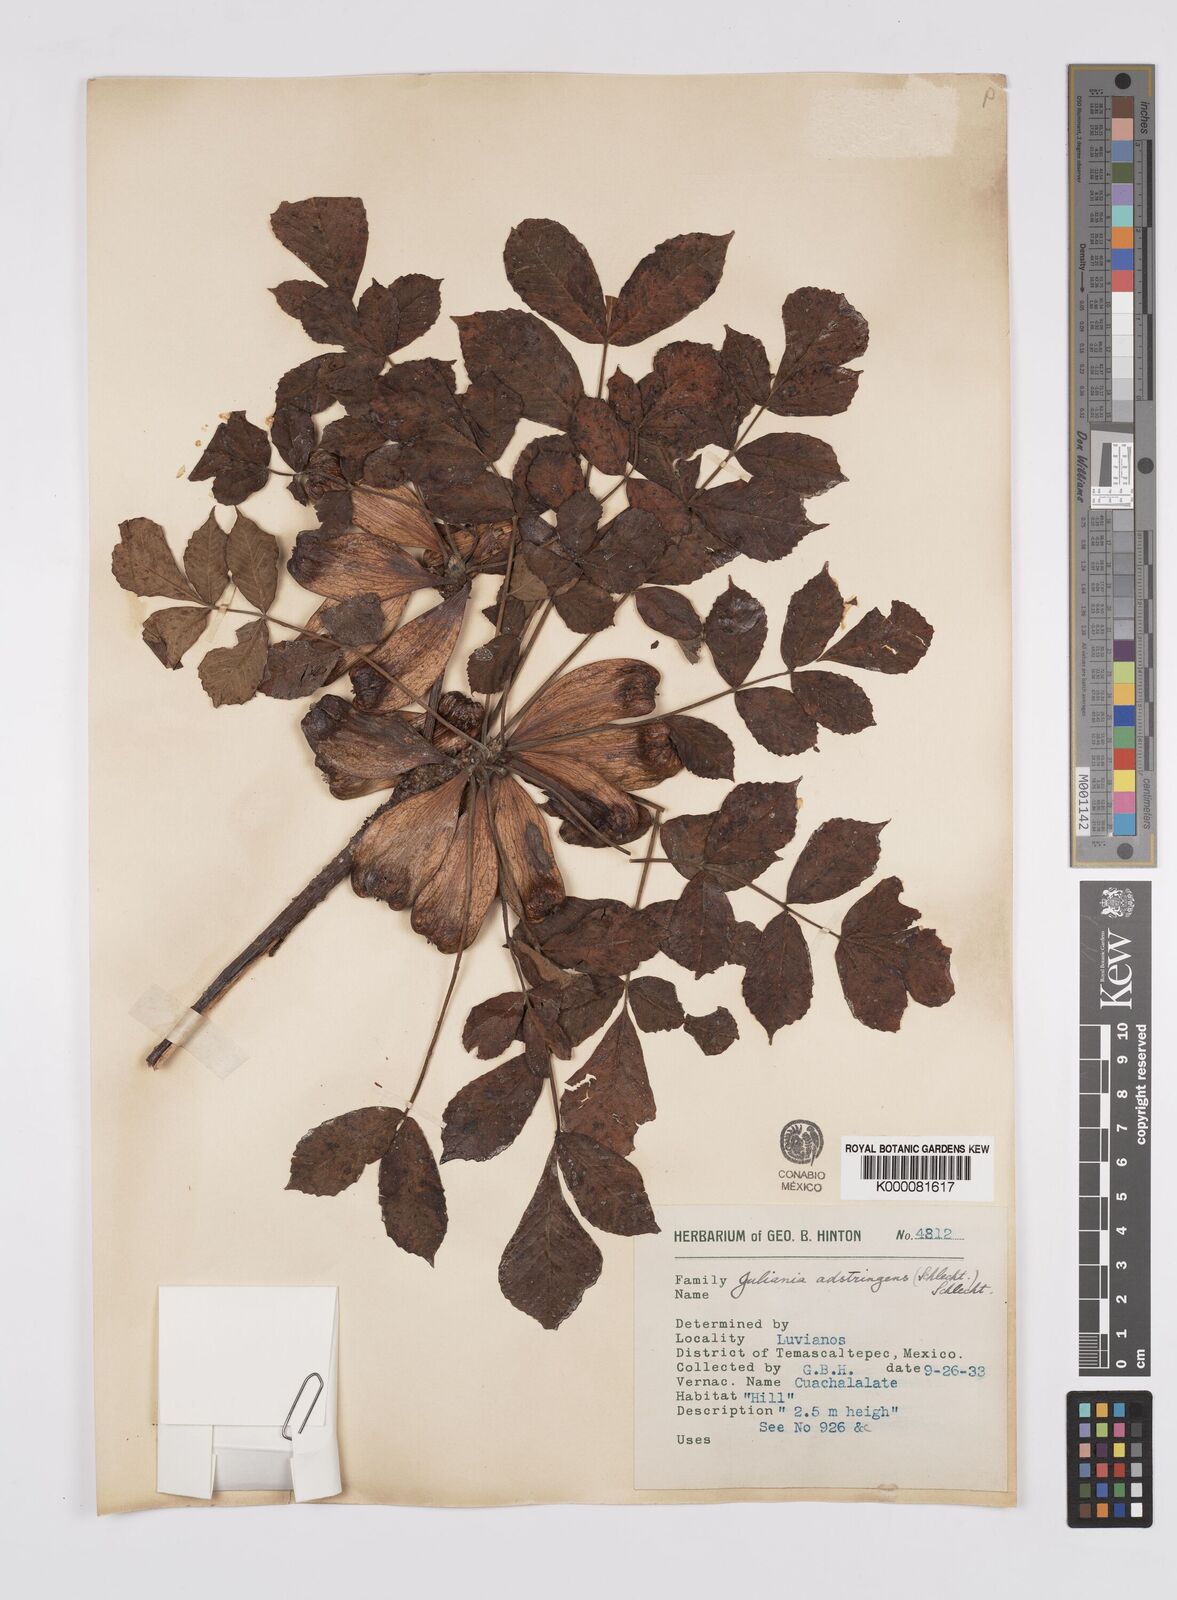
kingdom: Plantae
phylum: Tracheophyta
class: Magnoliopsida
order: Sapindales
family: Anacardiaceae
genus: Amphipterygium
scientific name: Amphipterygium adstringens
